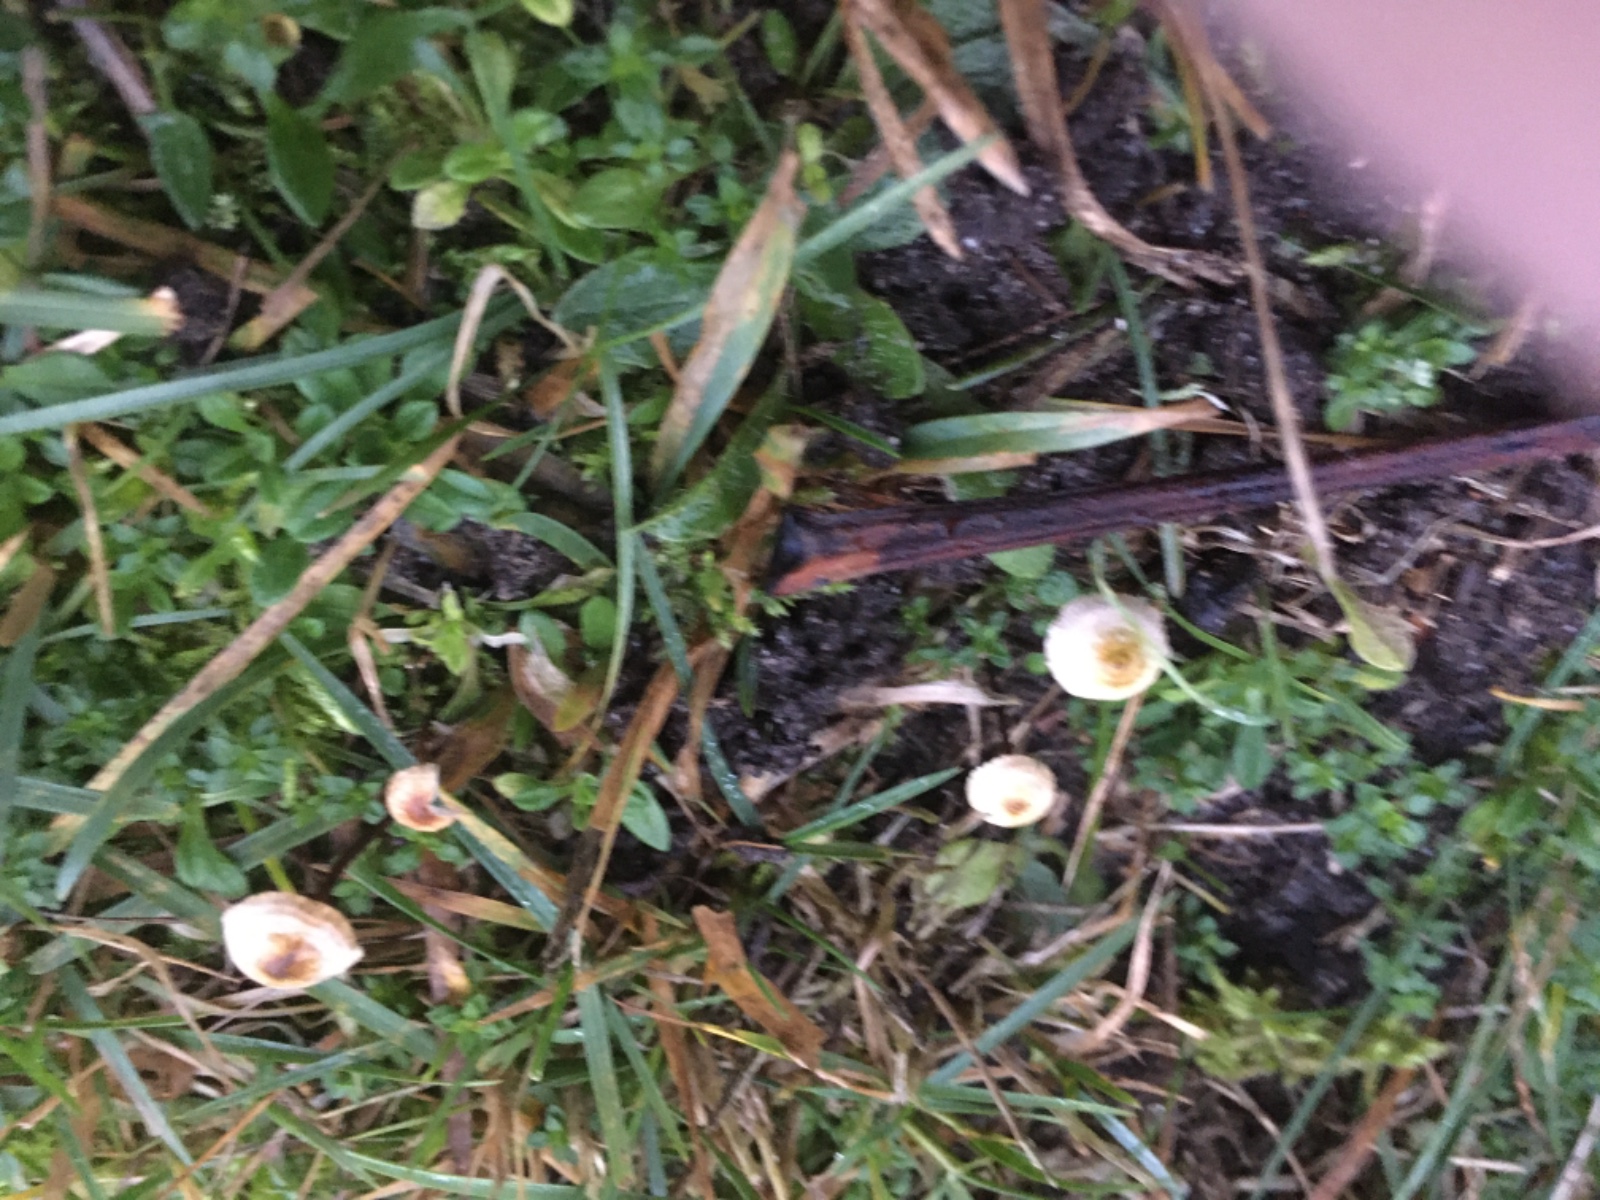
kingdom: Fungi
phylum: Basidiomycota
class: Agaricomycetes
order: Agaricales
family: Marasmiaceae
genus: Crinipellis
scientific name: Crinipellis scabella
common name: børstefod
